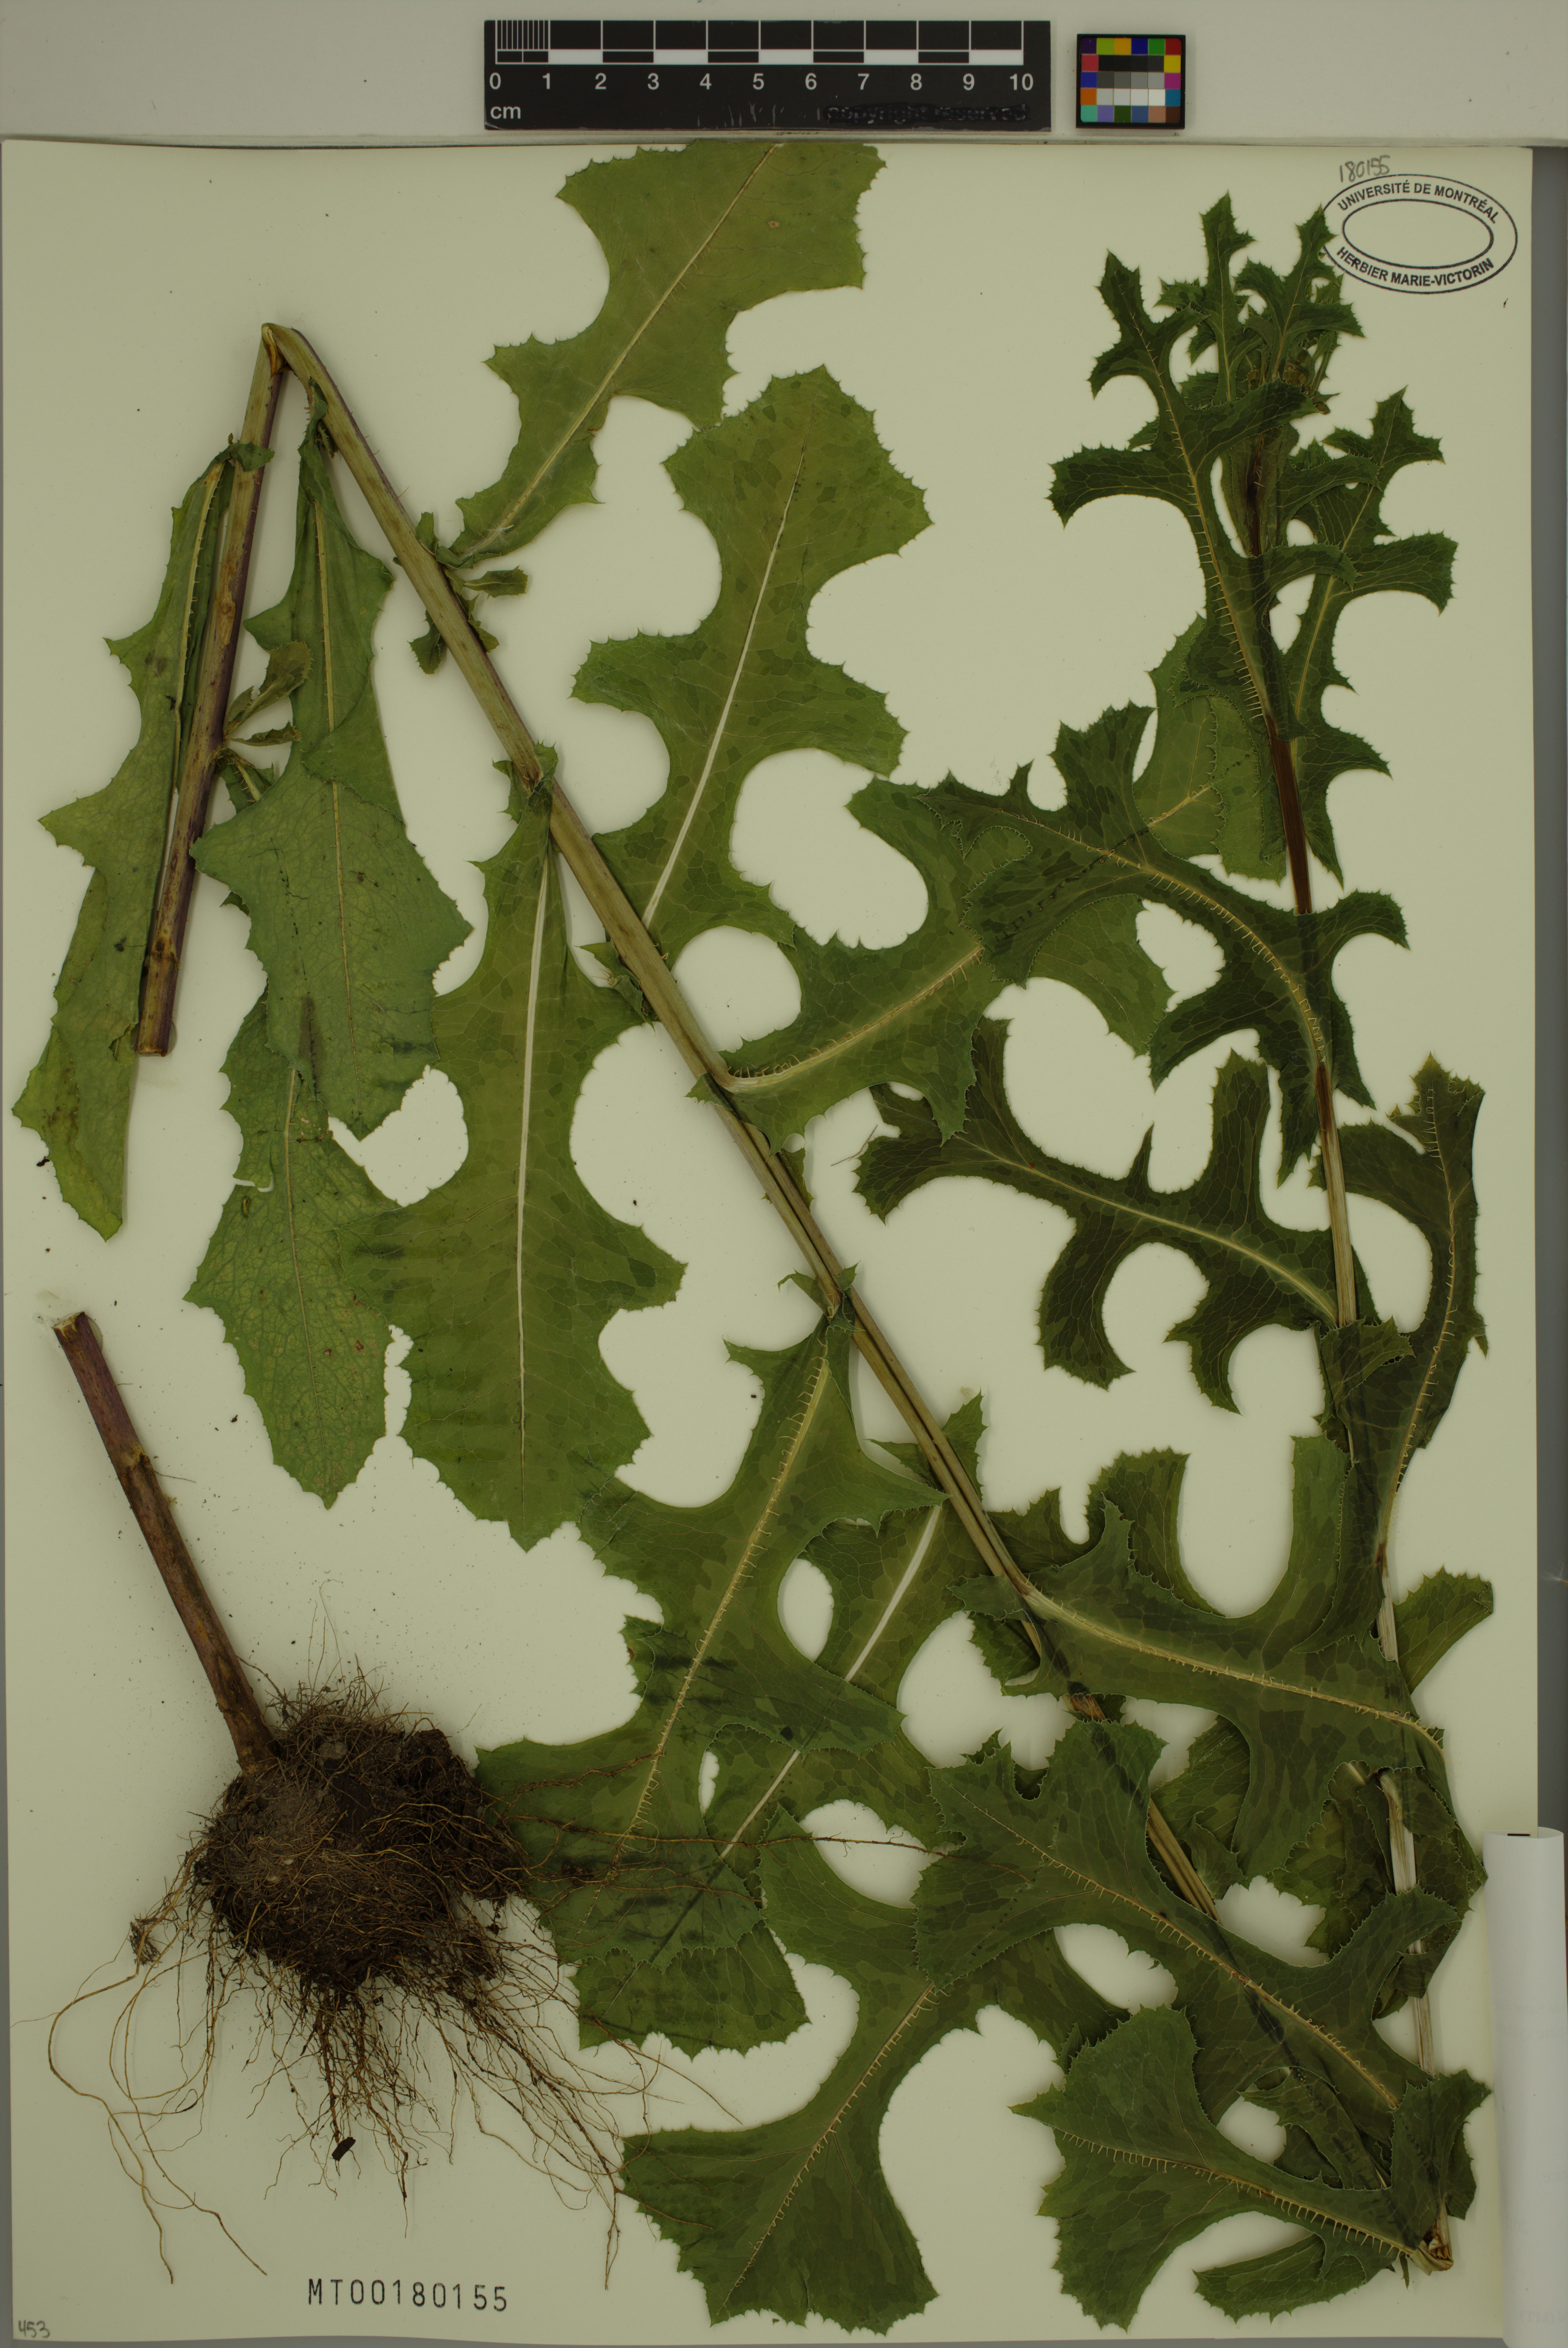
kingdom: Plantae
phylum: Tracheophyta
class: Magnoliopsida
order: Asterales
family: Asteraceae
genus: Lactuca
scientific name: Lactuca serriola
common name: Prickly lettuce
